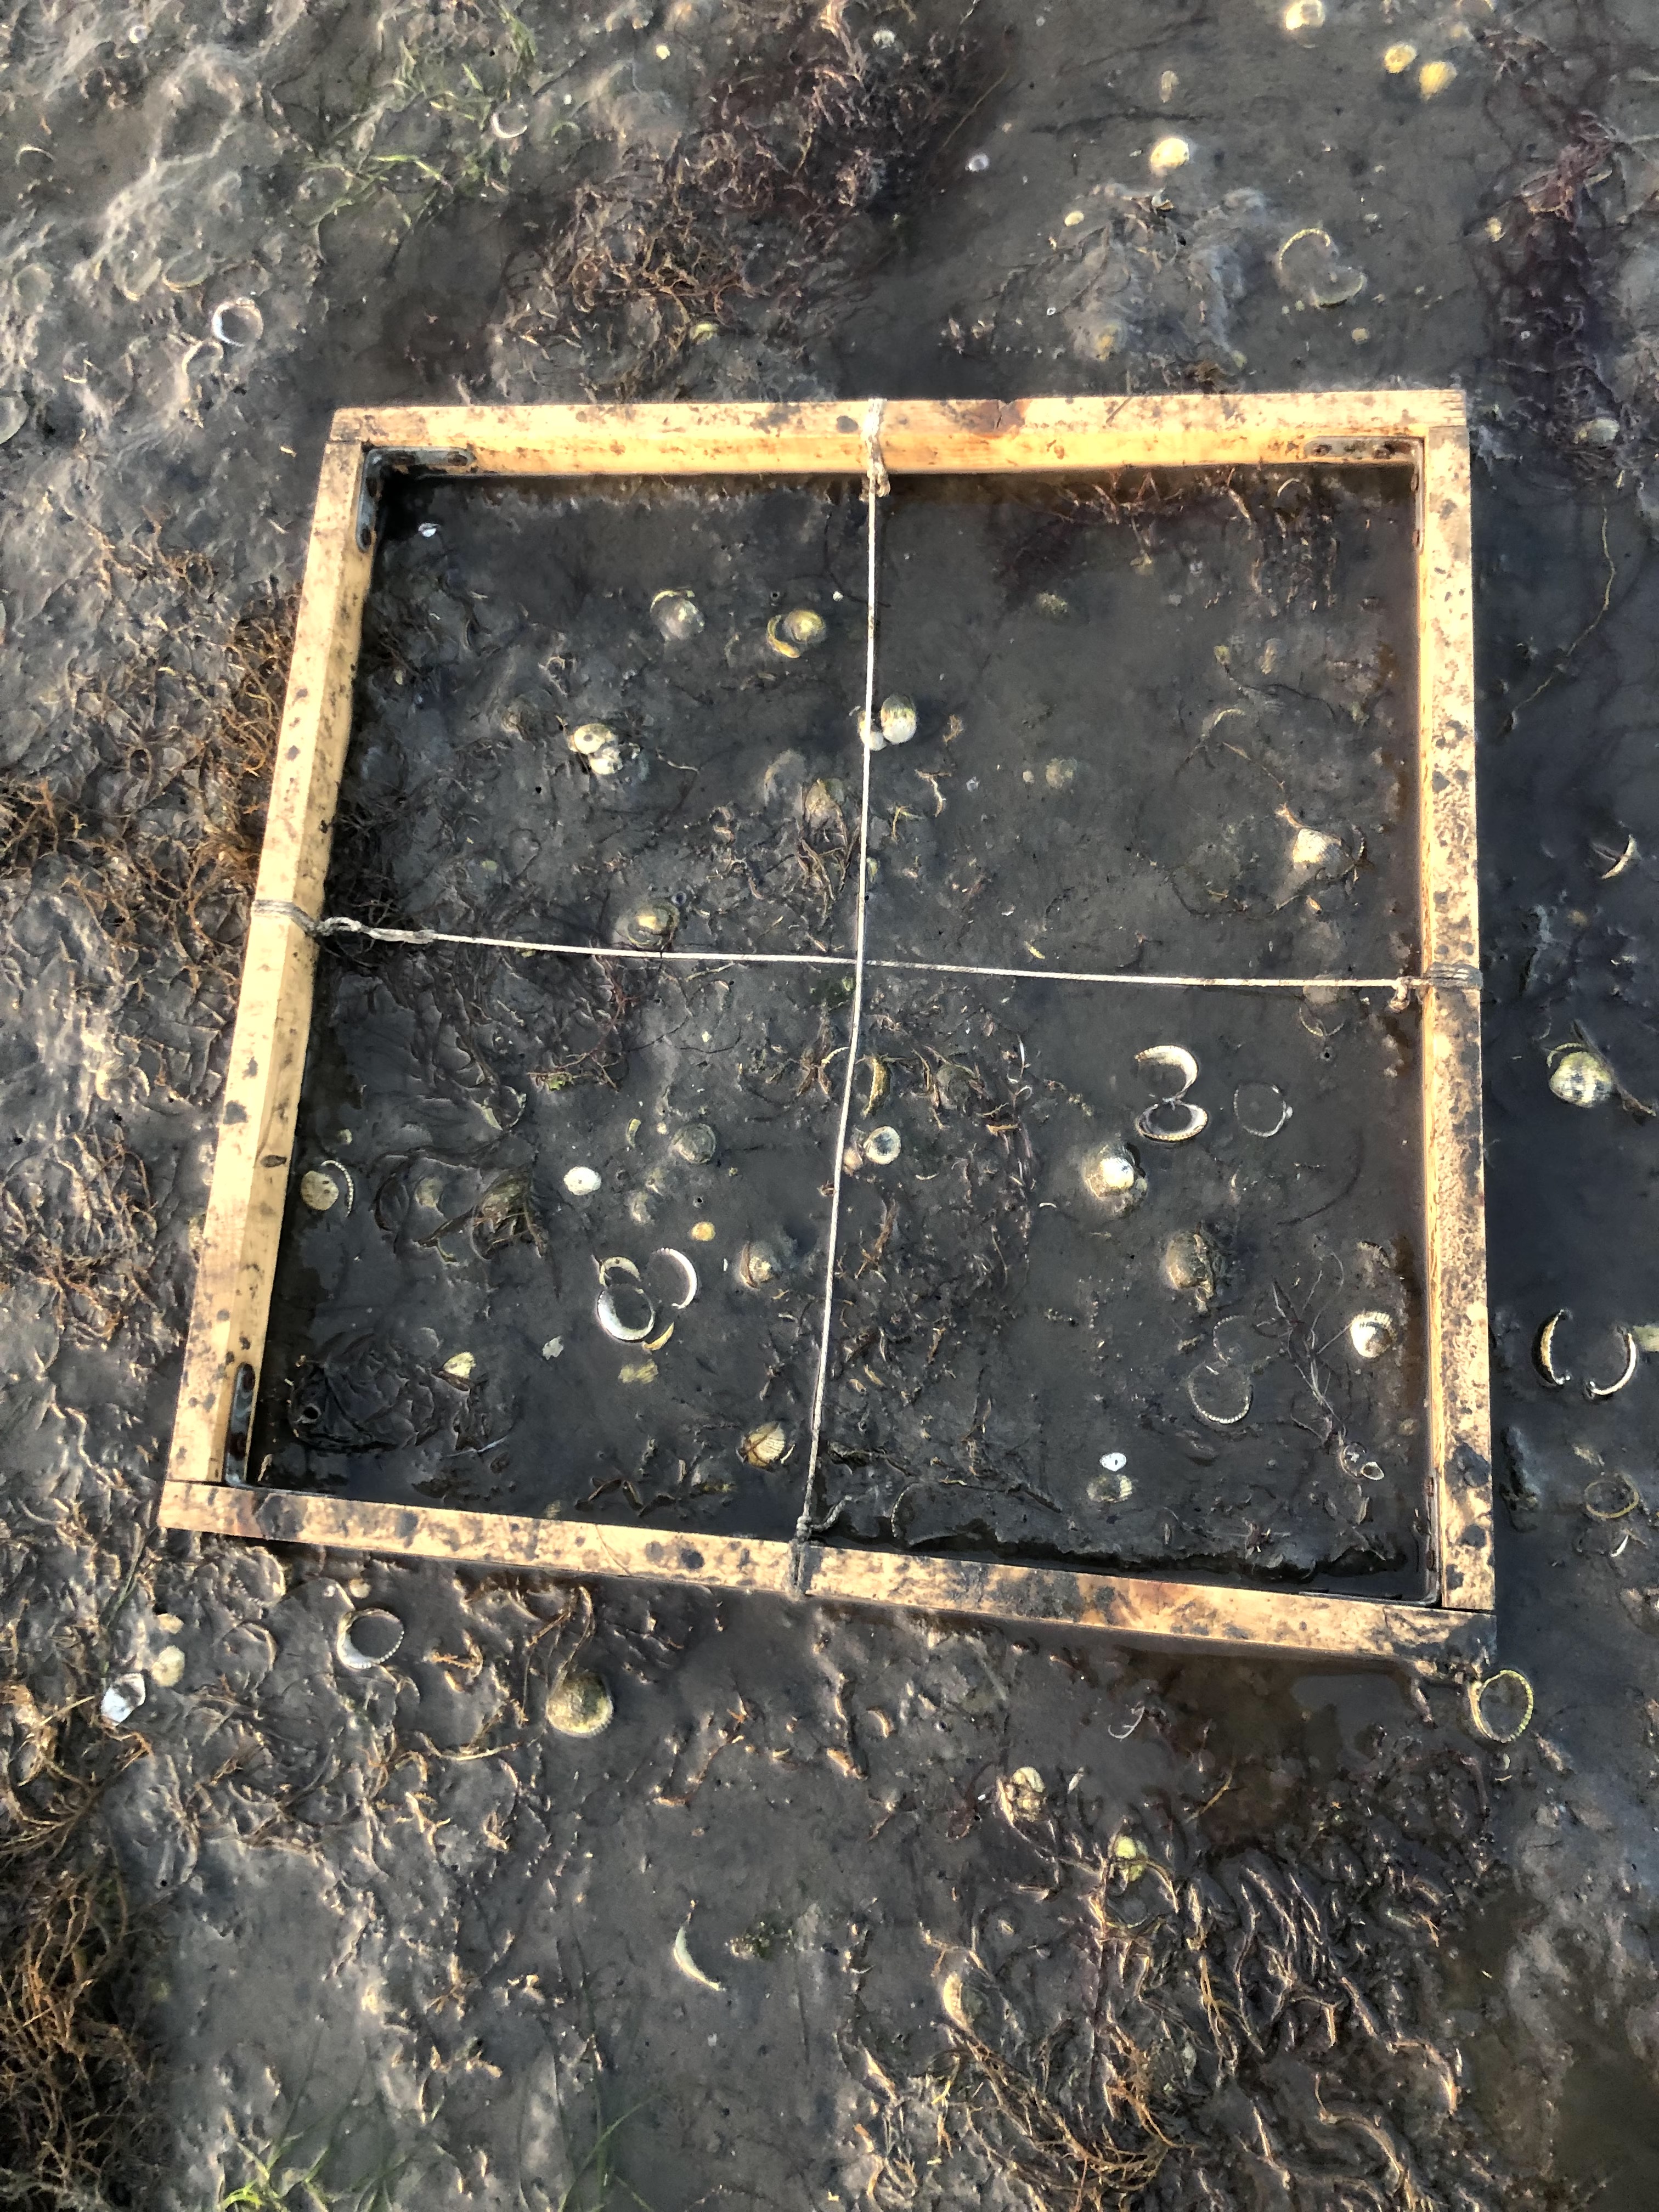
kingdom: Plantae
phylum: Rhodophyta
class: Florideophyceae
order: Gracilariales
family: Gracilariaceae
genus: Gracilaria
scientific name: Gracilaria vermiculophylla
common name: Algae
